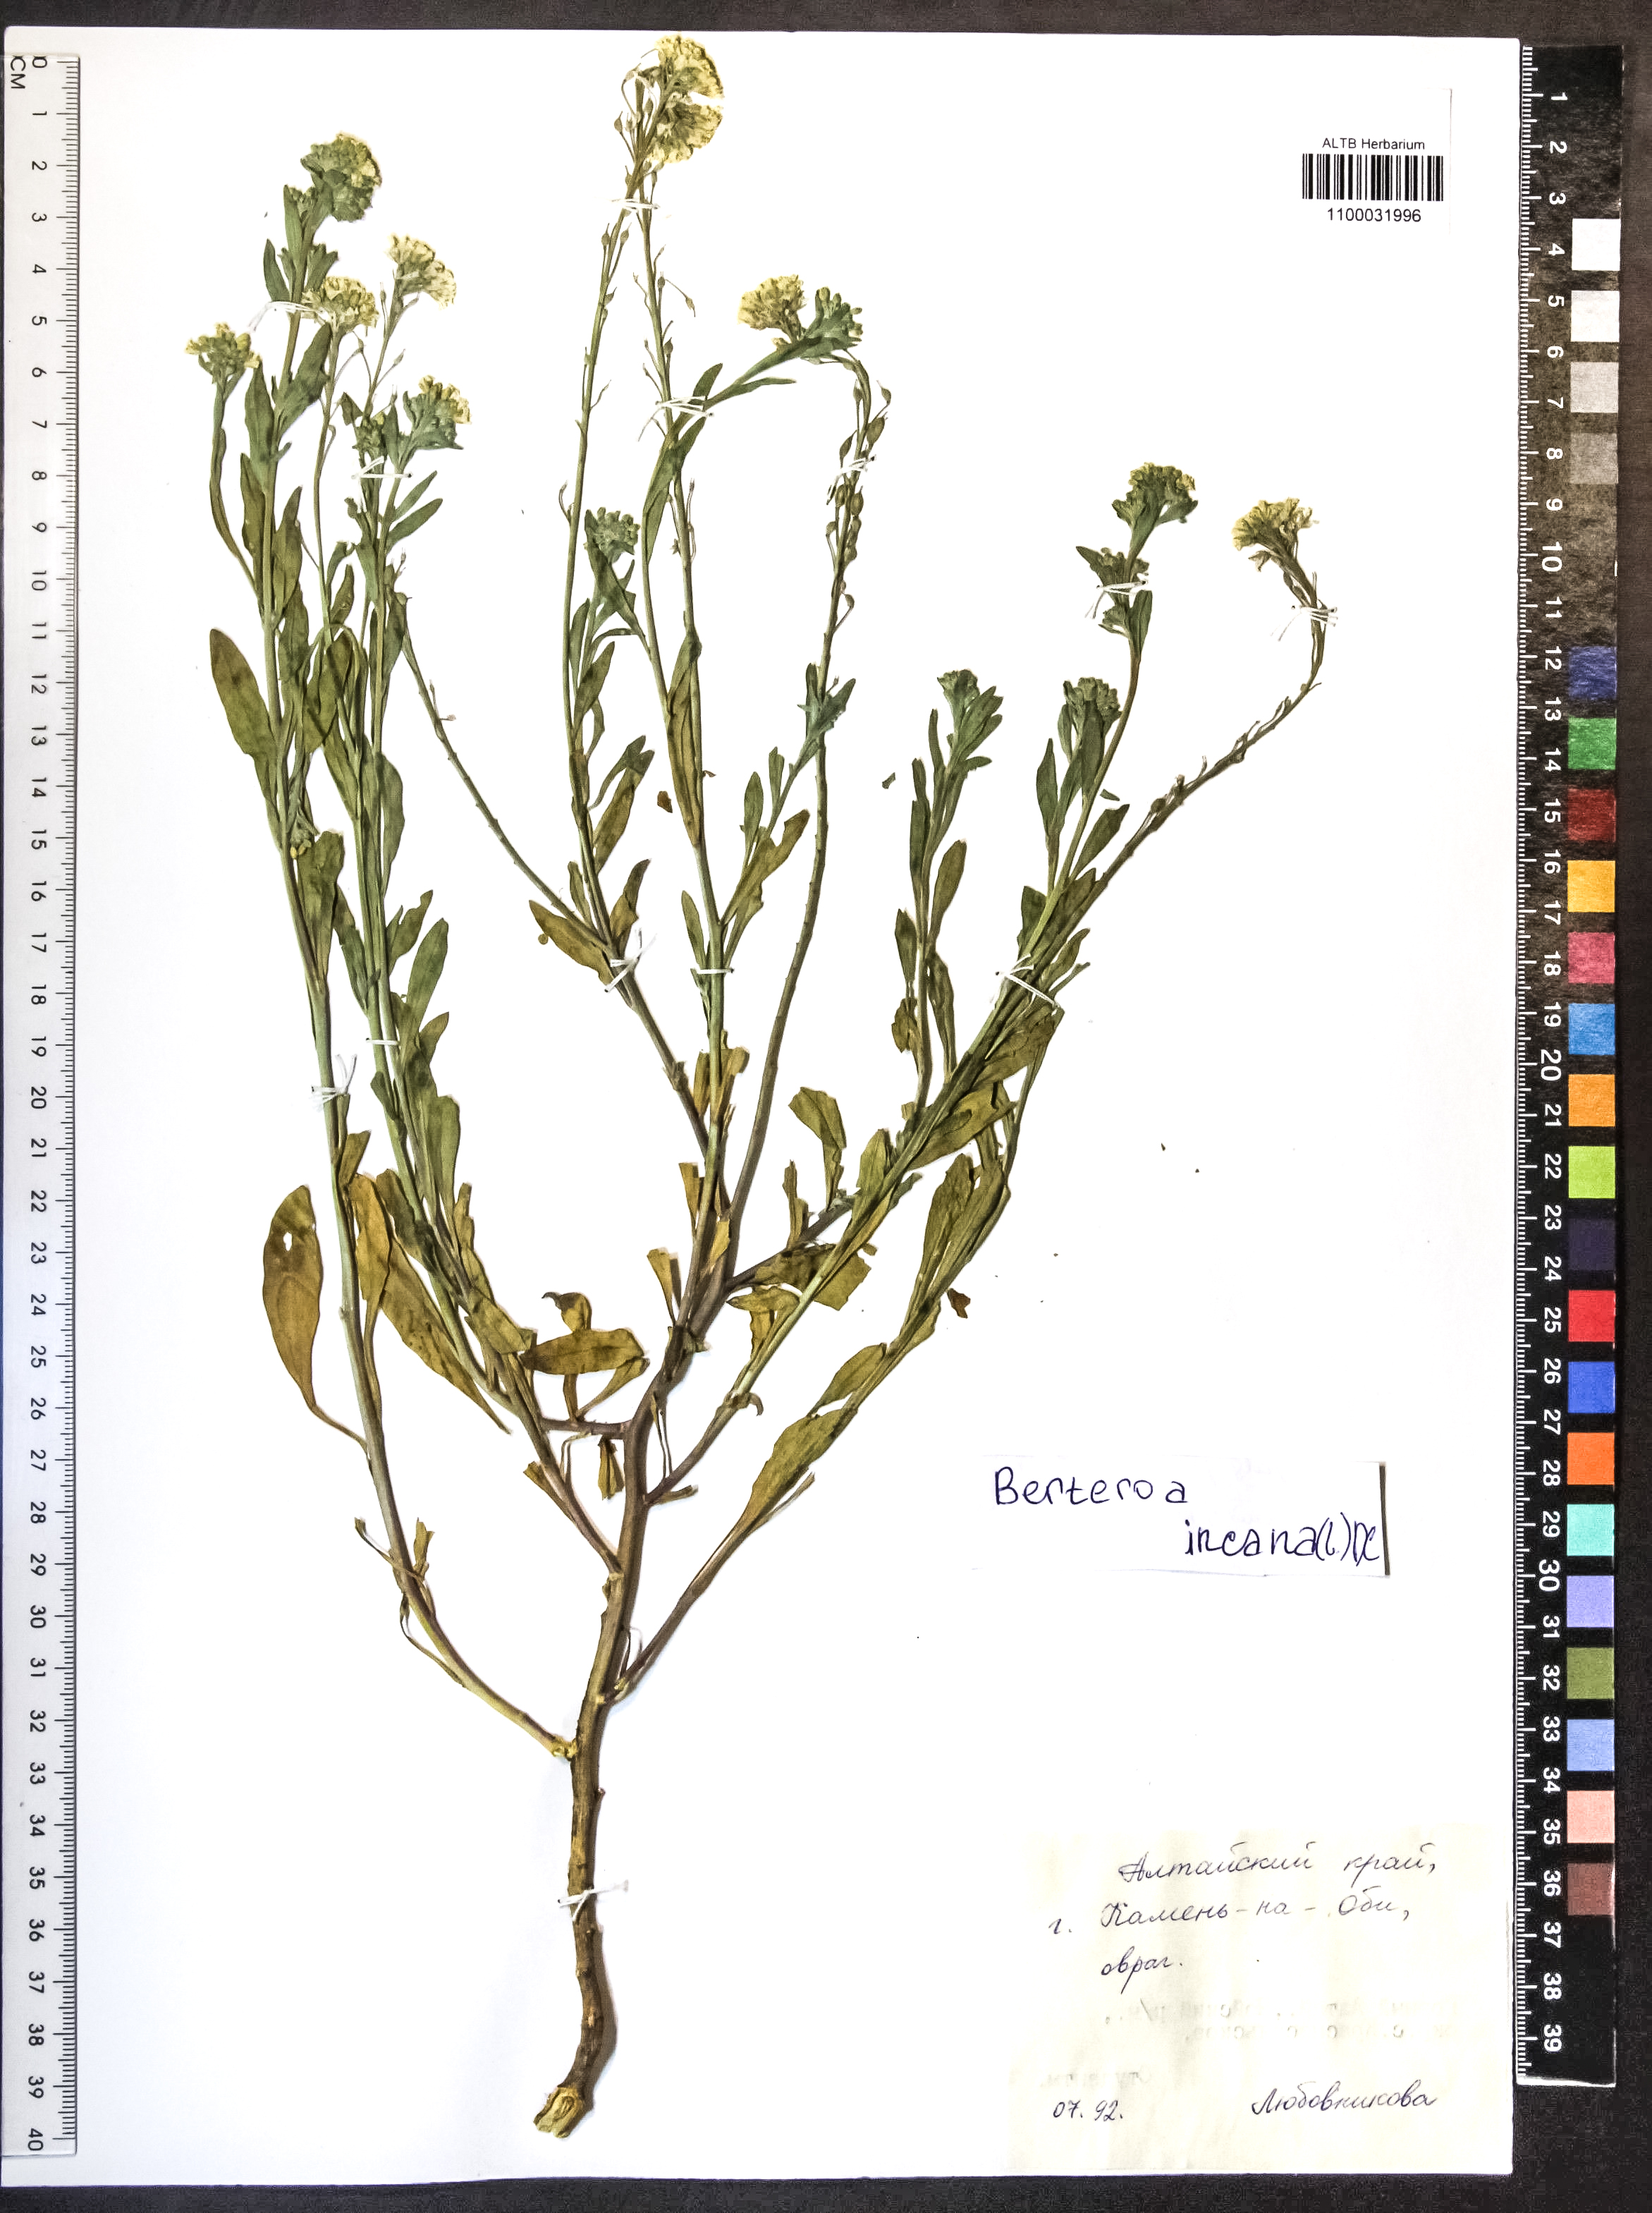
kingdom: Plantae
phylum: Tracheophyta
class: Magnoliopsida
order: Brassicales
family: Brassicaceae
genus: Berteroa
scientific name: Berteroa incana
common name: Hoary alison
